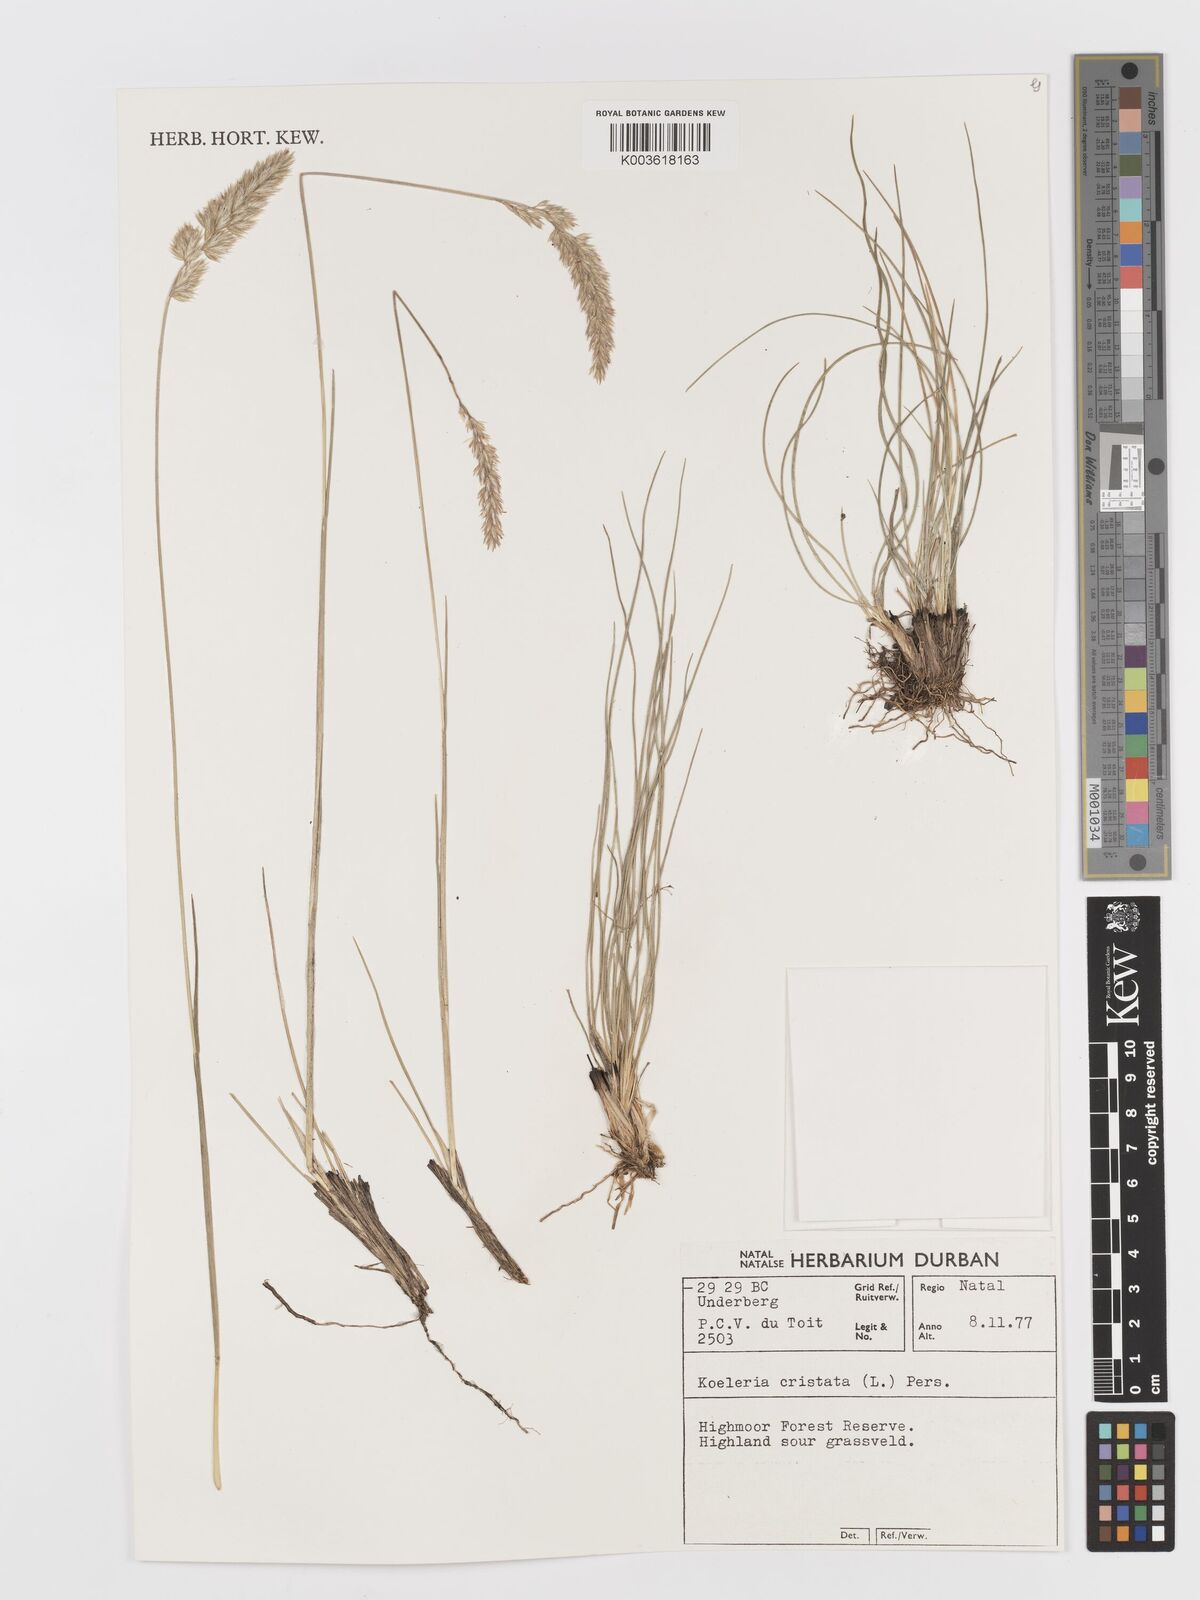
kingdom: Plantae
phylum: Tracheophyta
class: Liliopsida
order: Poales
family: Poaceae
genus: Koeleria
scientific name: Koeleria capensis
